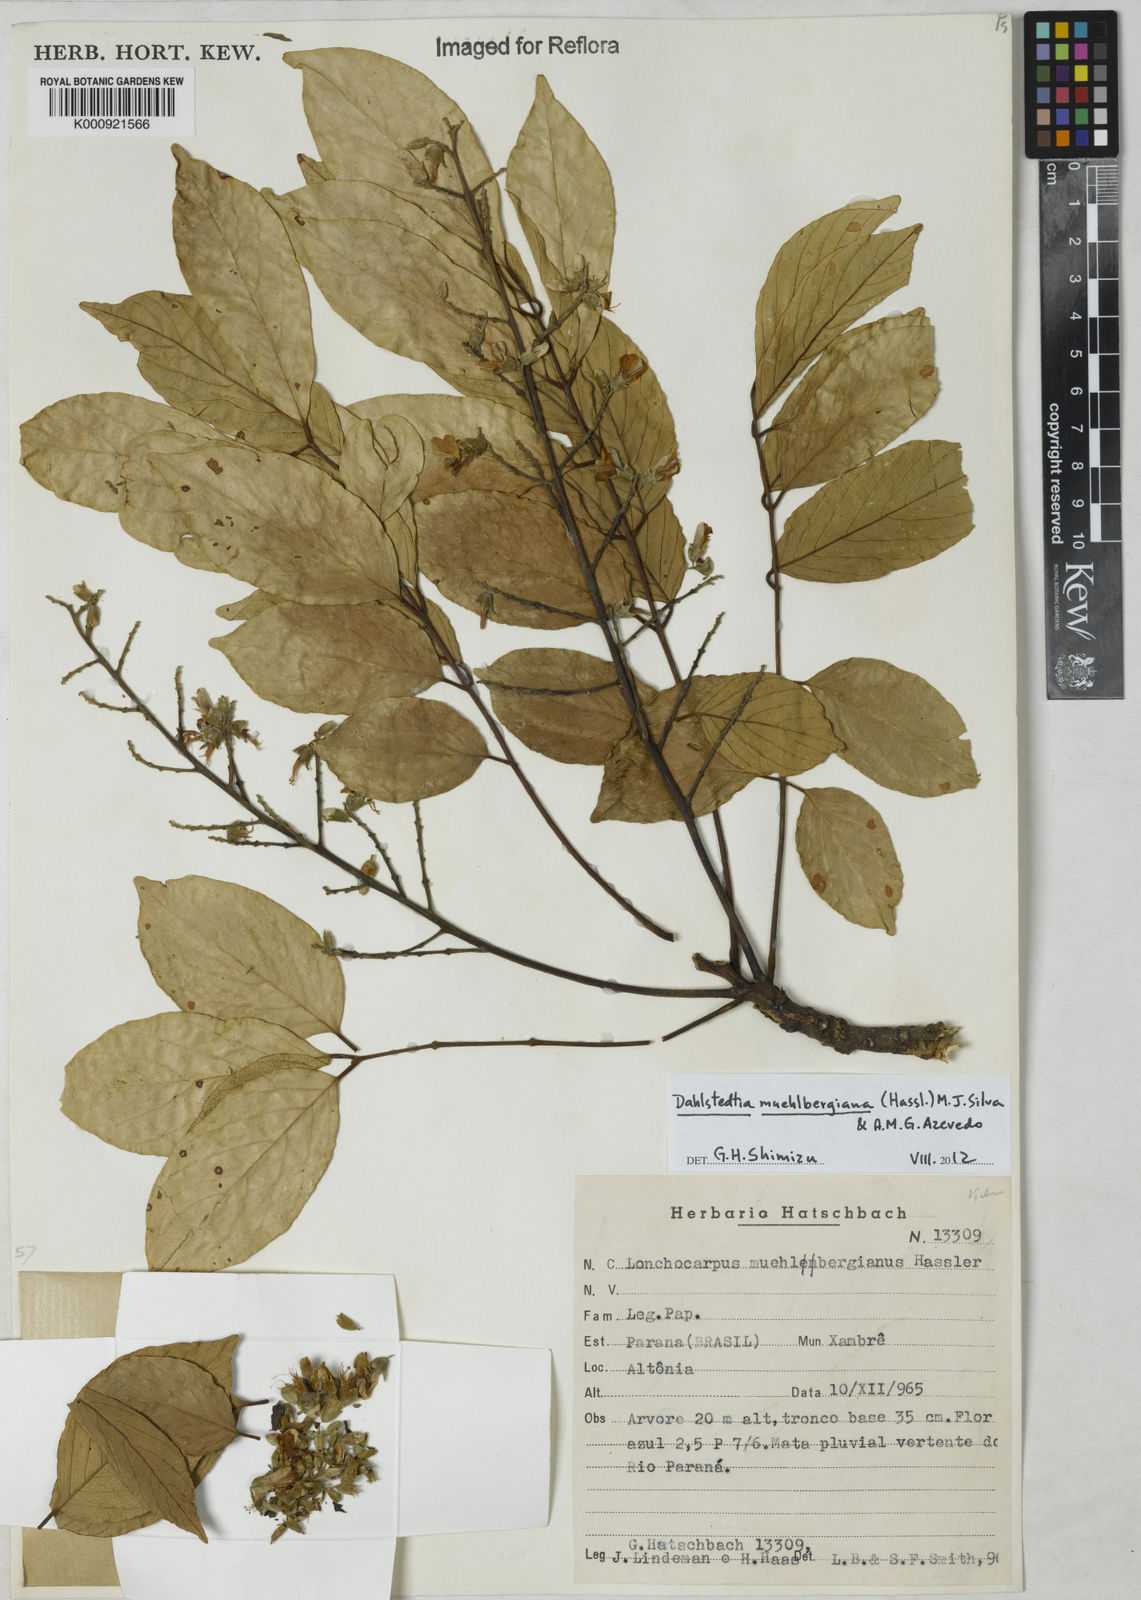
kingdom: Plantae
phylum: Tracheophyta
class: Magnoliopsida
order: Fabales
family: Fabaceae
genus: Dahlstedtia
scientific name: Dahlstedtia muehlbergiana
